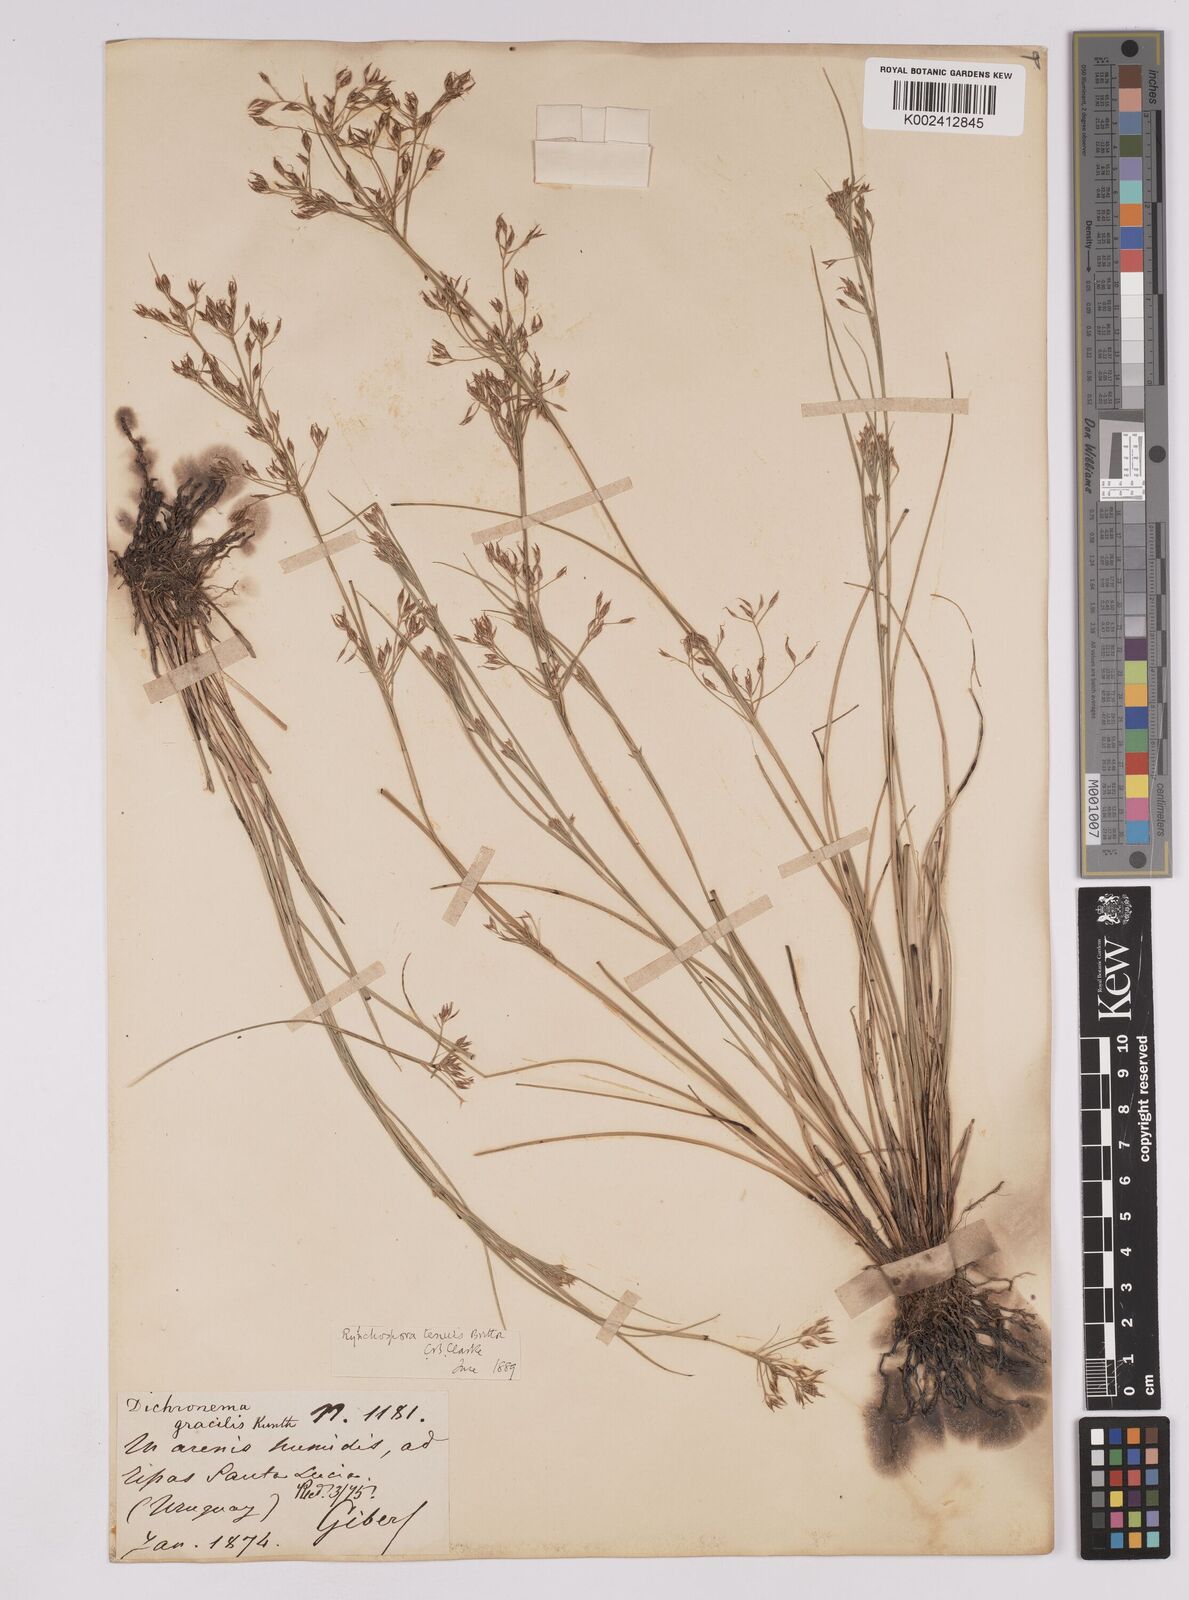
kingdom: Plantae
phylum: Tracheophyta
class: Liliopsida
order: Poales
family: Cyperaceae
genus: Rhynchospora
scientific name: Rhynchospora tenuis
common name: Quill beaksedge
